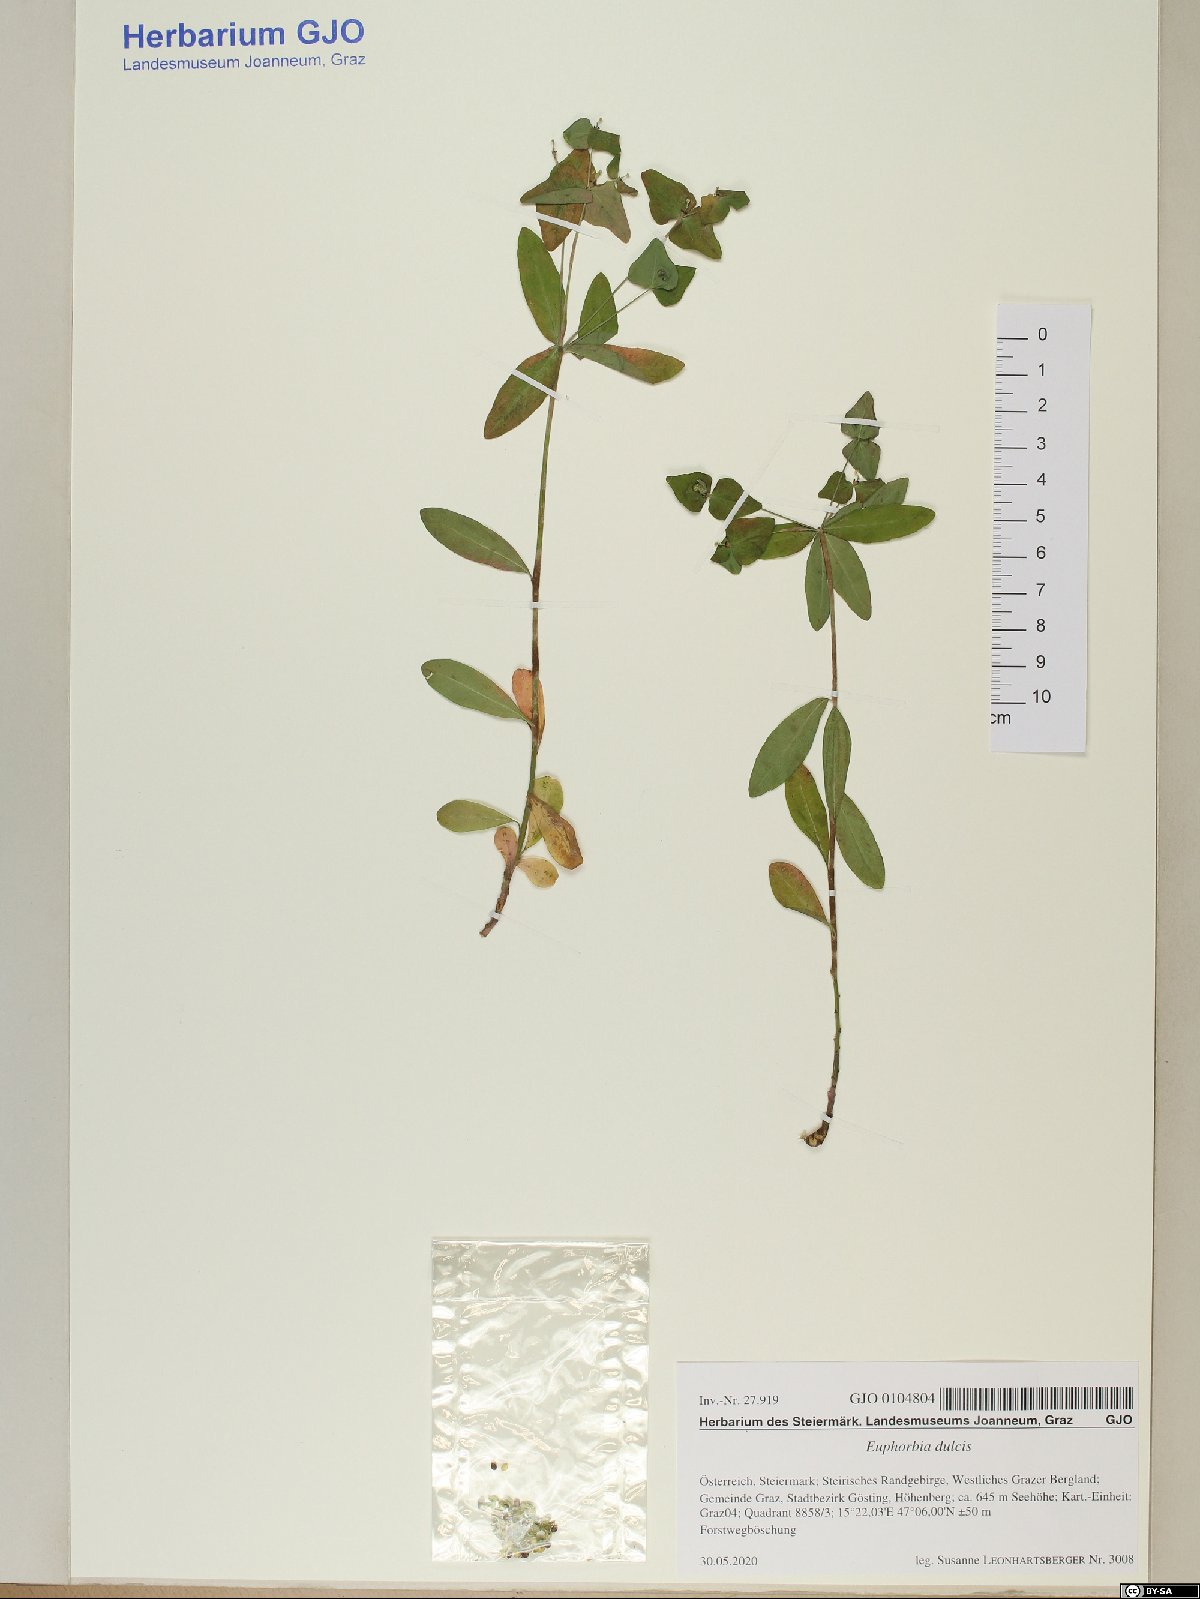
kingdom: Plantae
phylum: Tracheophyta
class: Magnoliopsida
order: Malpighiales
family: Euphorbiaceae
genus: Euphorbia
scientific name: Euphorbia dulcis
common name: Sweet spurge
